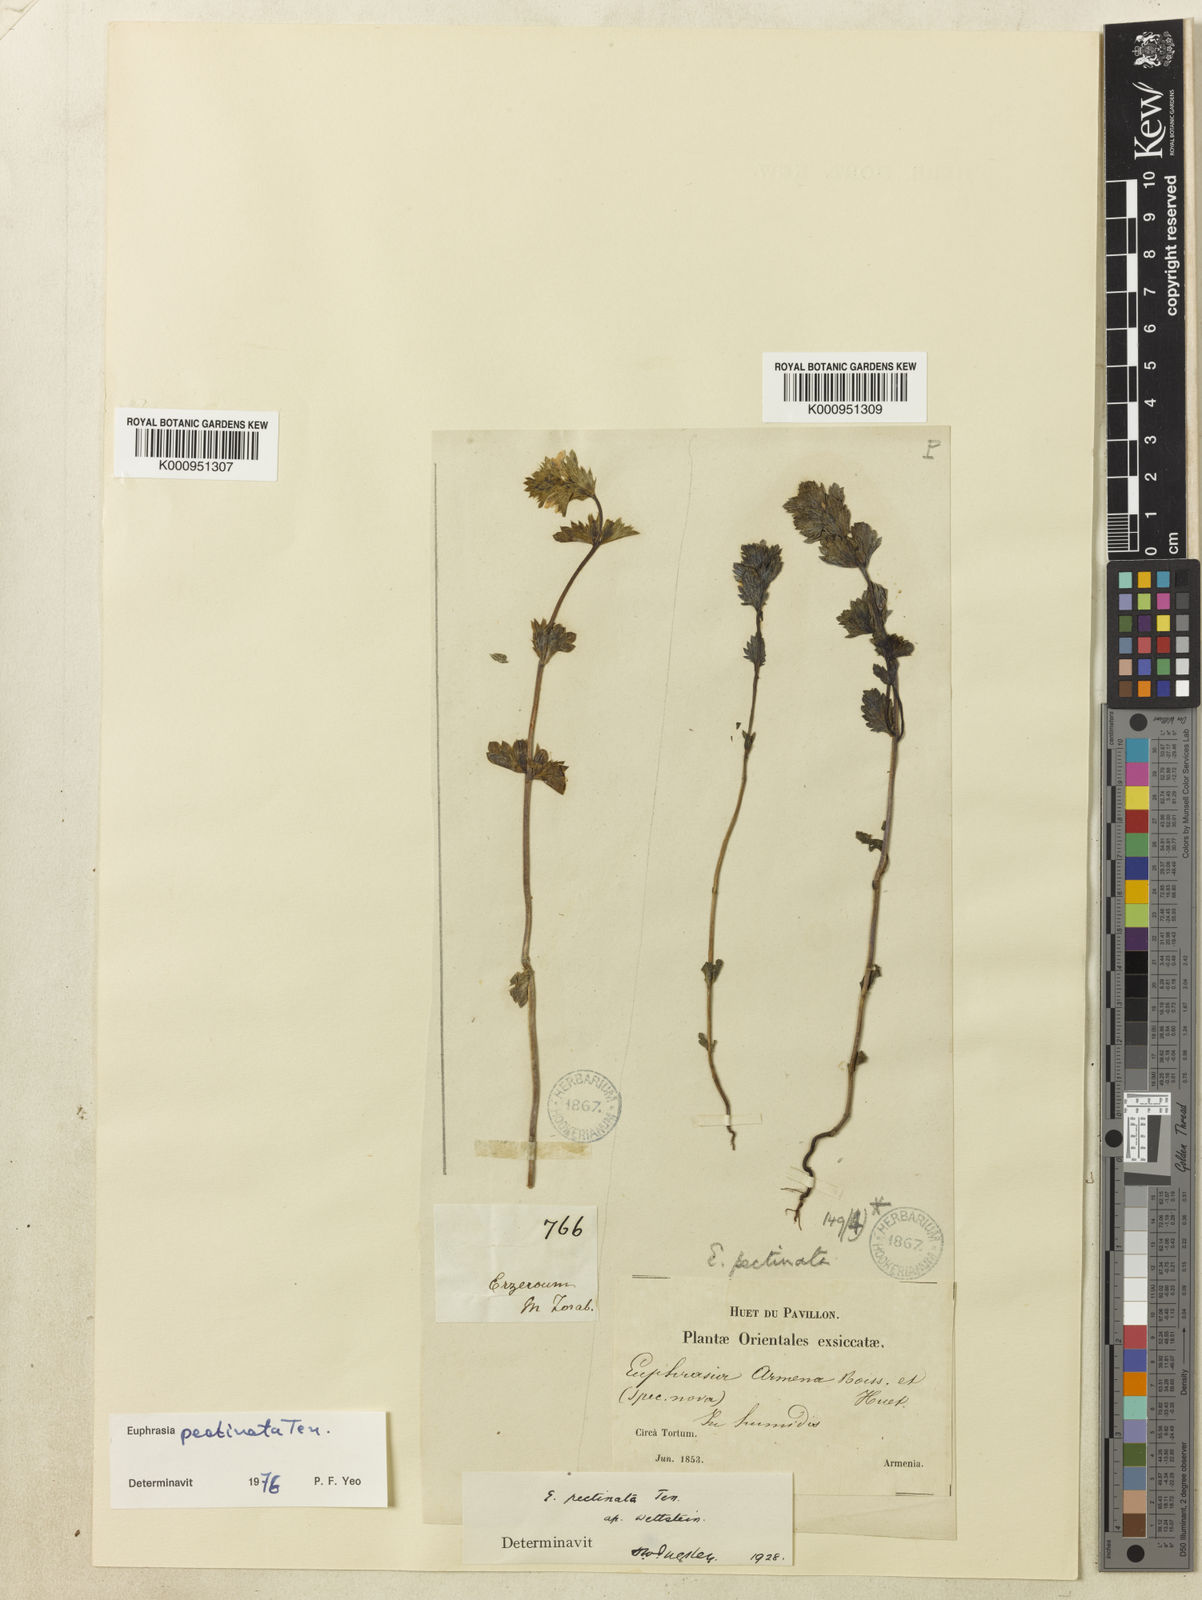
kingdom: Plantae
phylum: Tracheophyta
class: Magnoliopsida
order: Lamiales
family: Orobanchaceae
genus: Euphrasia
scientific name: Euphrasia pectinata
